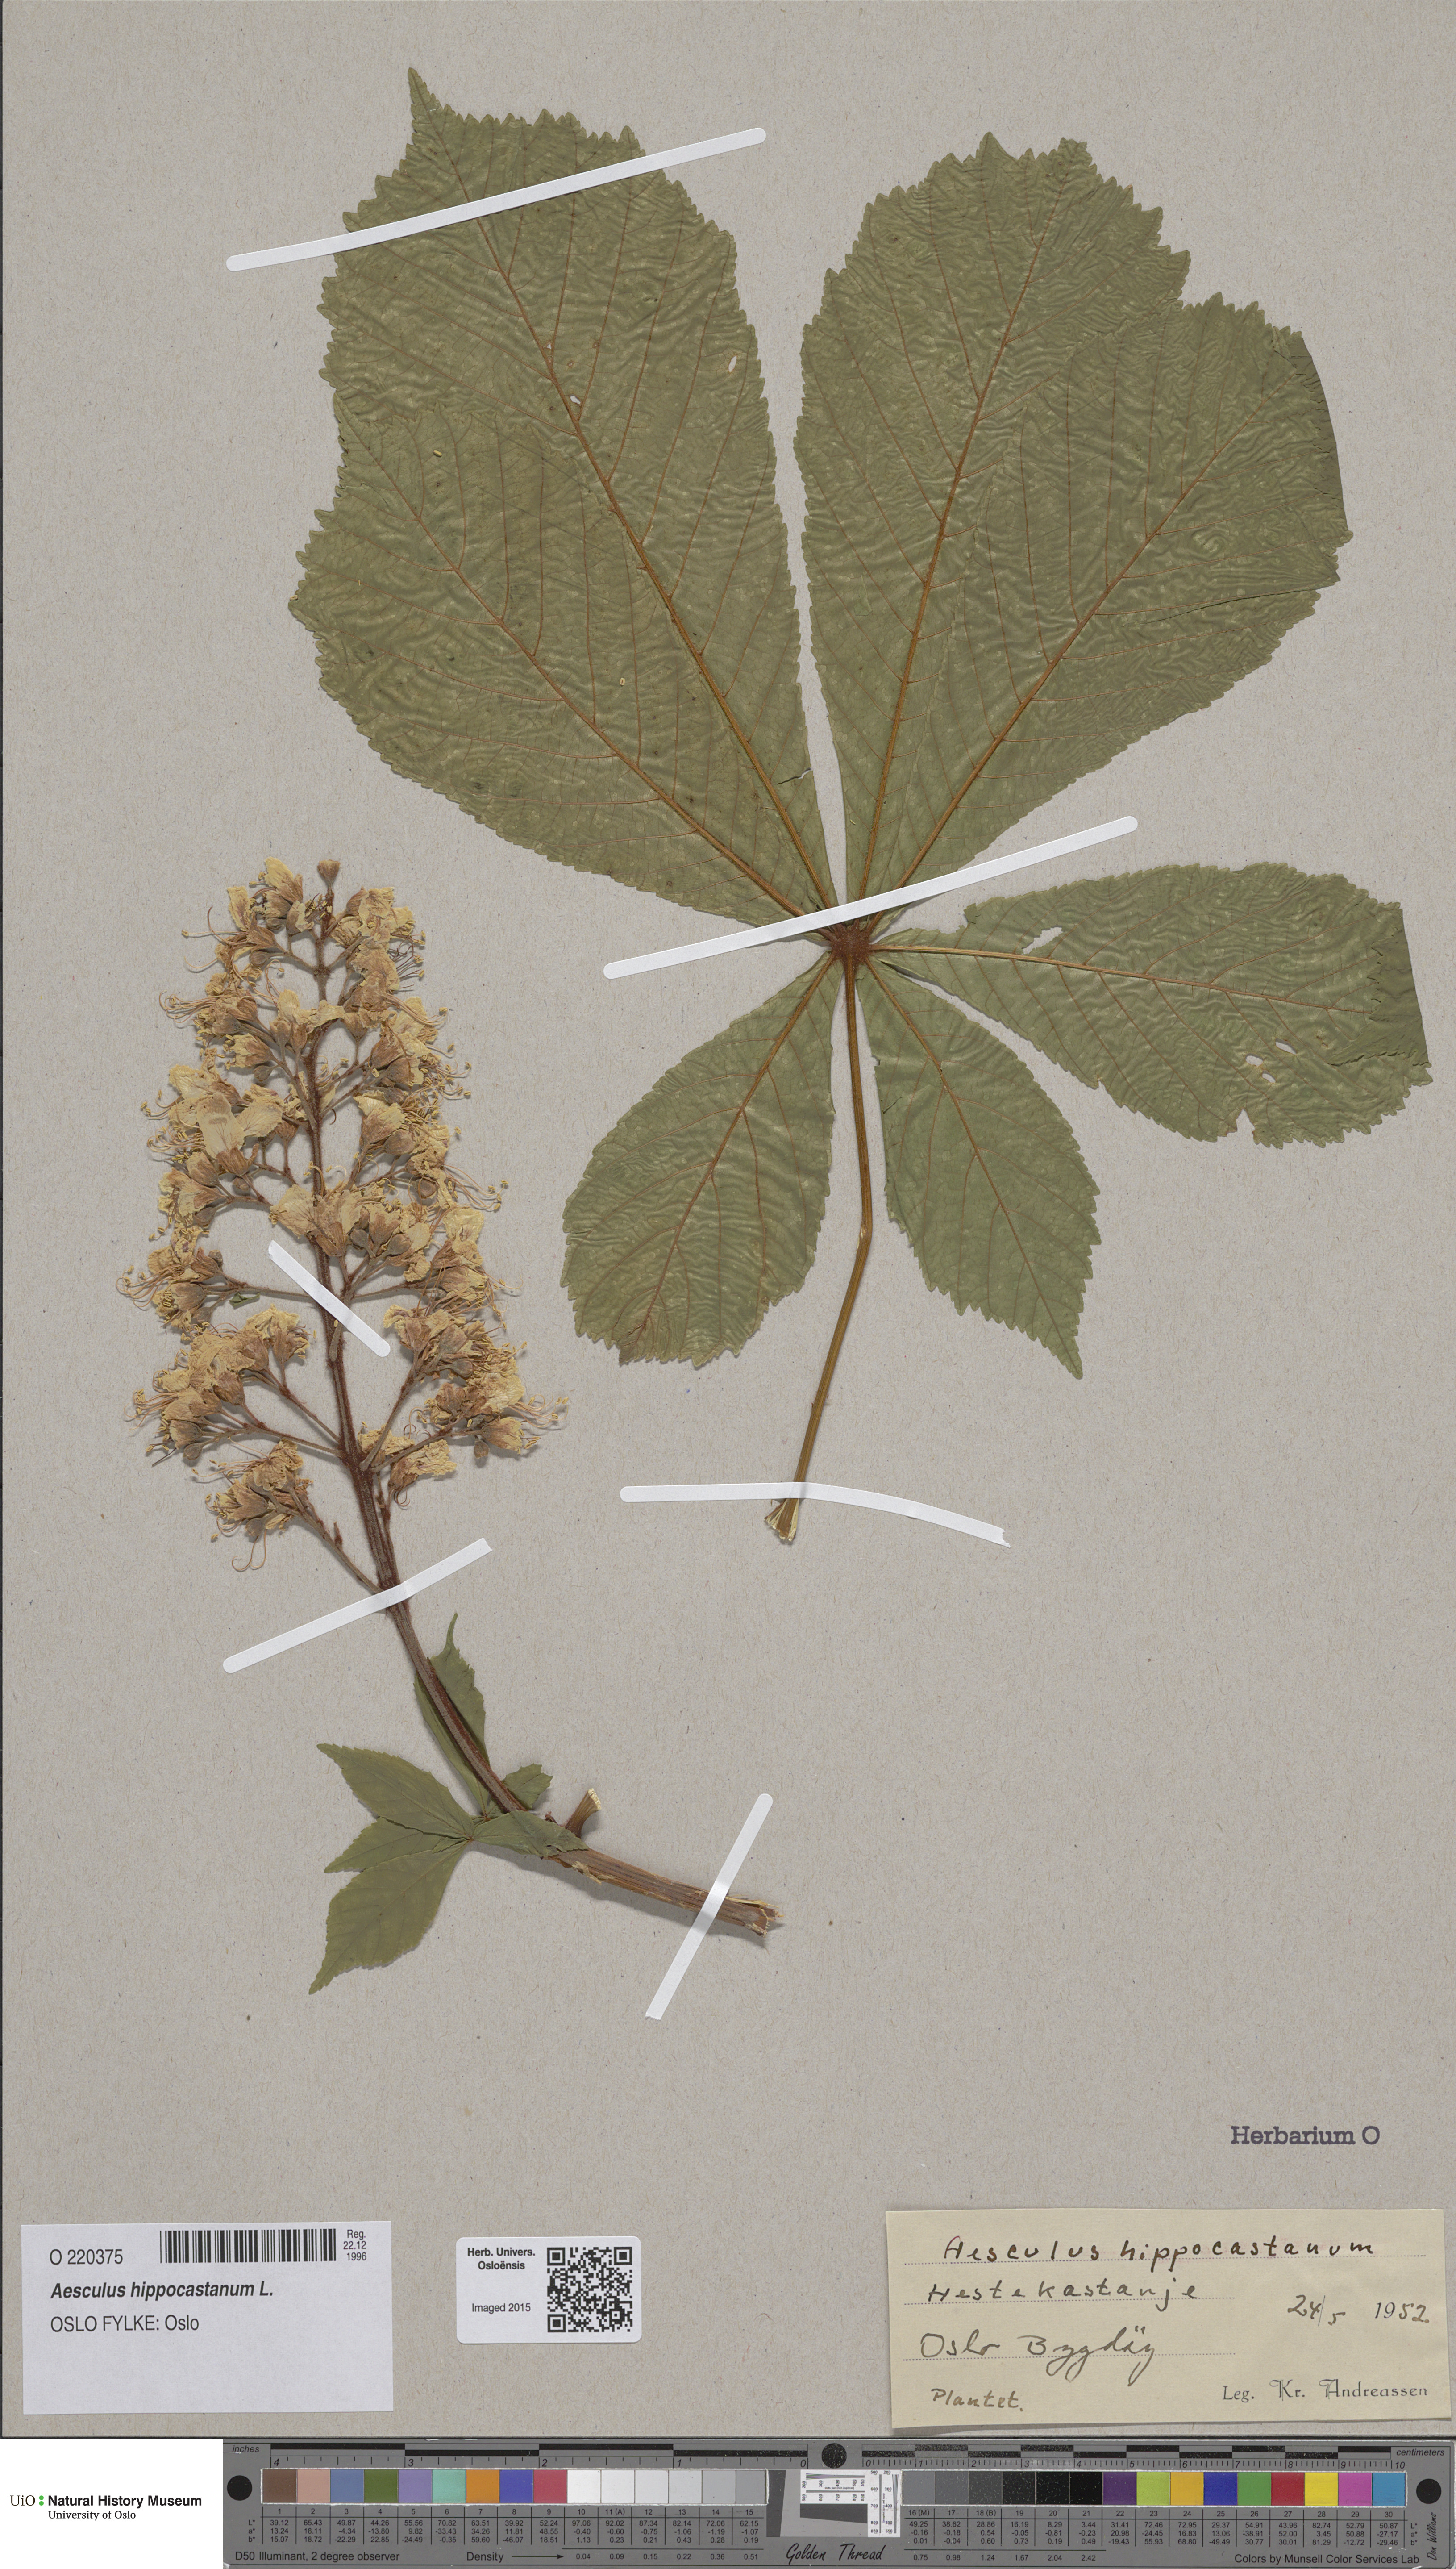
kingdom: Plantae
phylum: Tracheophyta
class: Magnoliopsida
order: Sapindales
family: Sapindaceae
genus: Aesculus
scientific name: Aesculus hippocastanum
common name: Horse-chestnut
